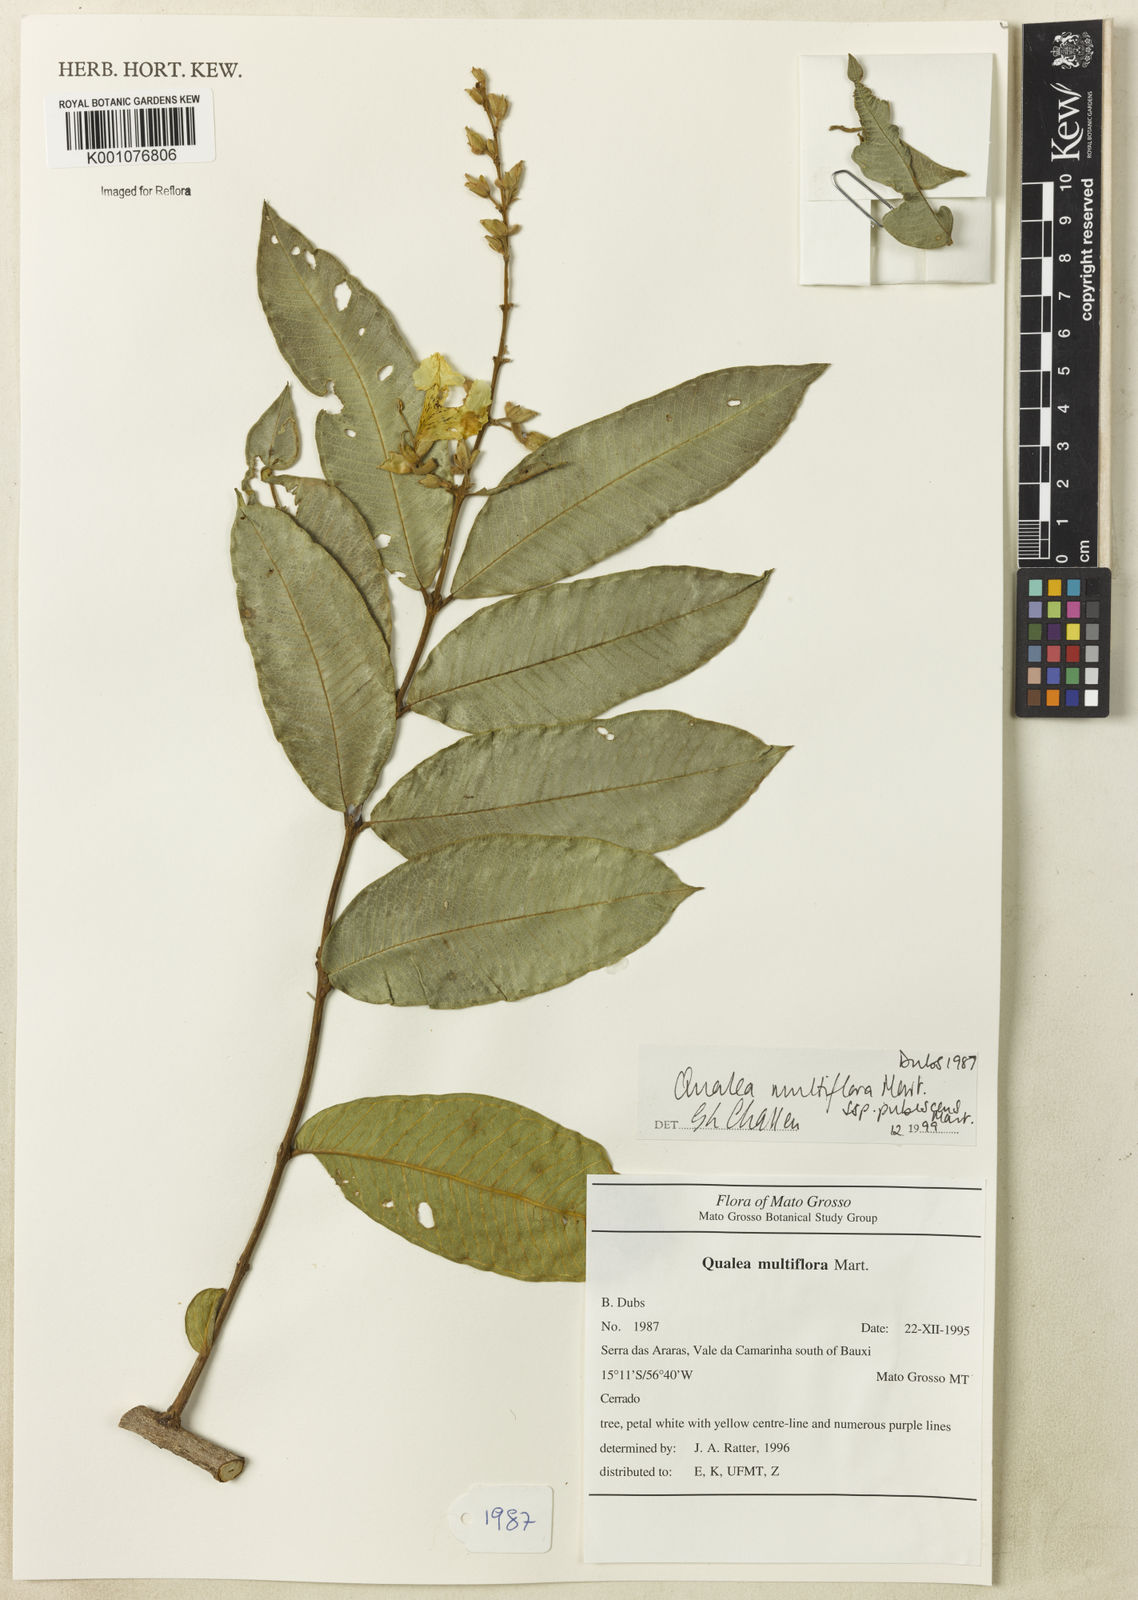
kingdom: Plantae
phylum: Tracheophyta
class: Magnoliopsida
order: Myrtales
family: Vochysiaceae
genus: Qualea
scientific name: Qualea multiflora
